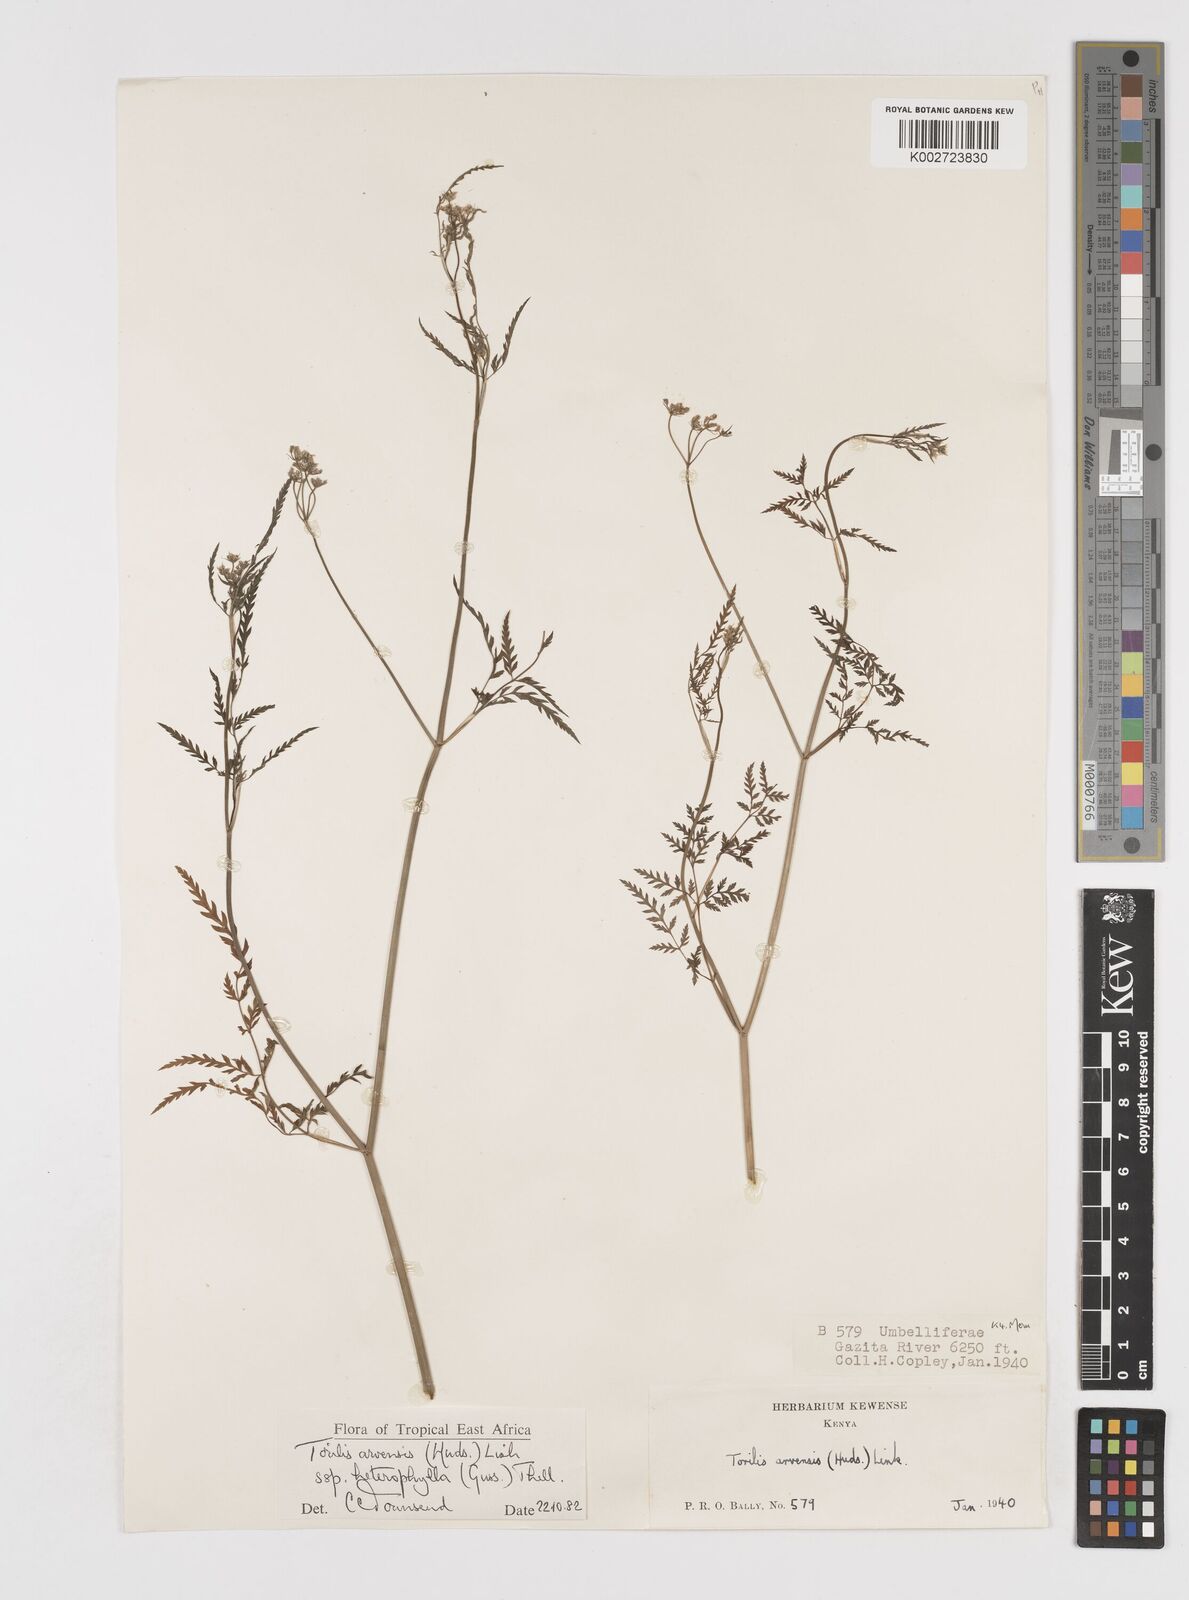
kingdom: Plantae
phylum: Tracheophyta
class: Magnoliopsida
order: Apiales
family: Apiaceae
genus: Torilis
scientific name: Torilis arvensis
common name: Spreading hedge-parsley
